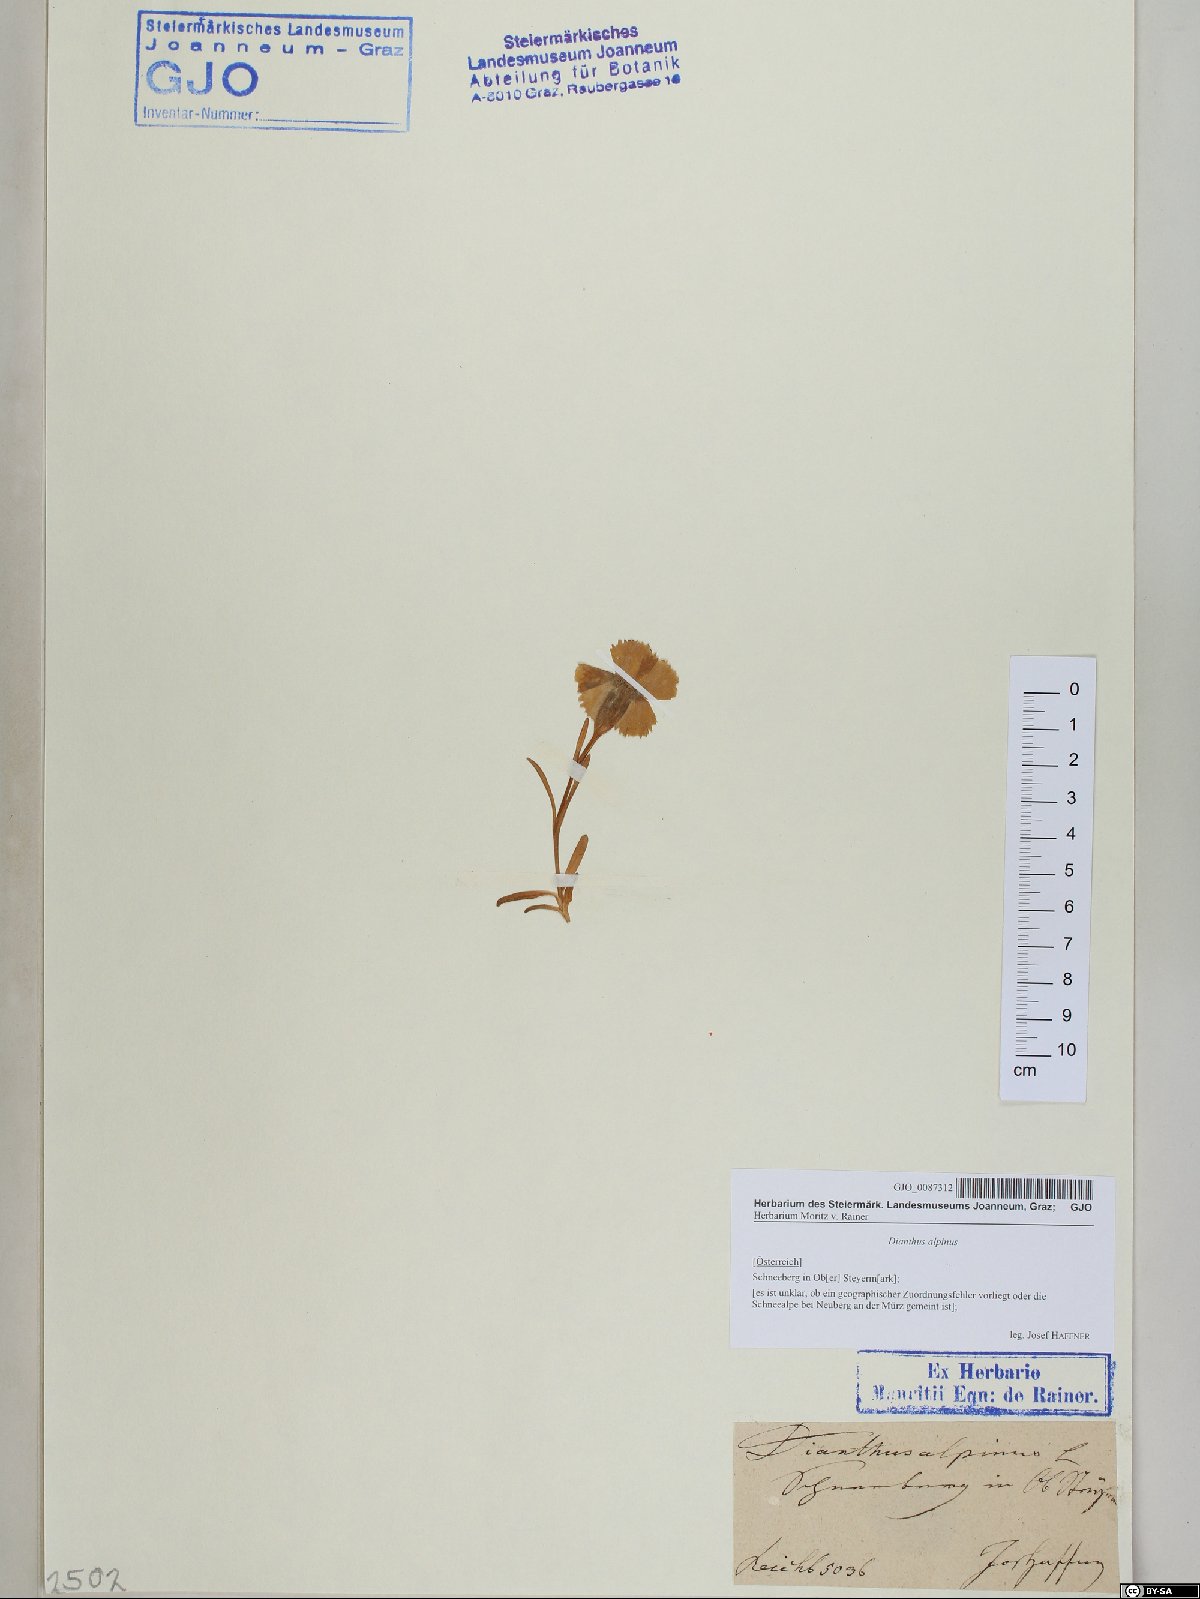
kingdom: Plantae
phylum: Tracheophyta
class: Magnoliopsida
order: Caryophyllales
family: Caryophyllaceae
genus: Dianthus
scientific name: Dianthus alpinus
